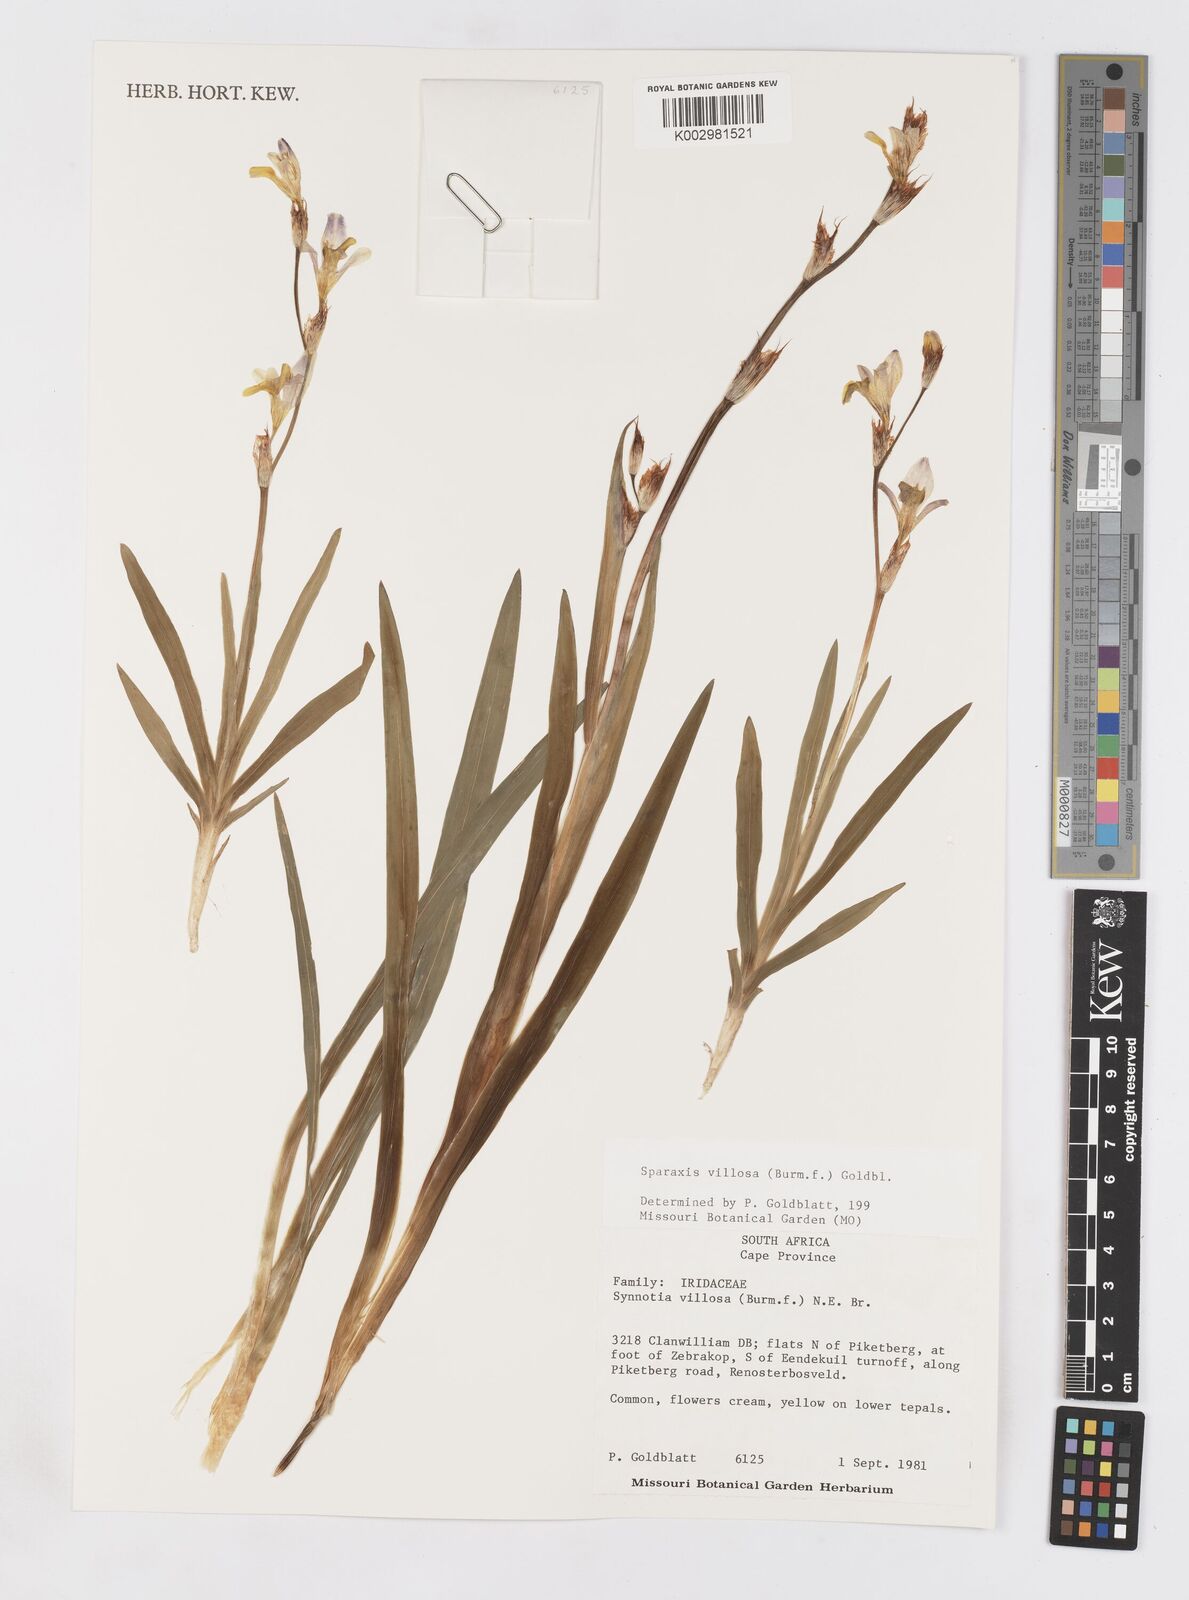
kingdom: Plantae
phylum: Tracheophyta
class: Liliopsida
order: Asparagales
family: Iridaceae
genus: Sparaxis
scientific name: Sparaxis villosa
